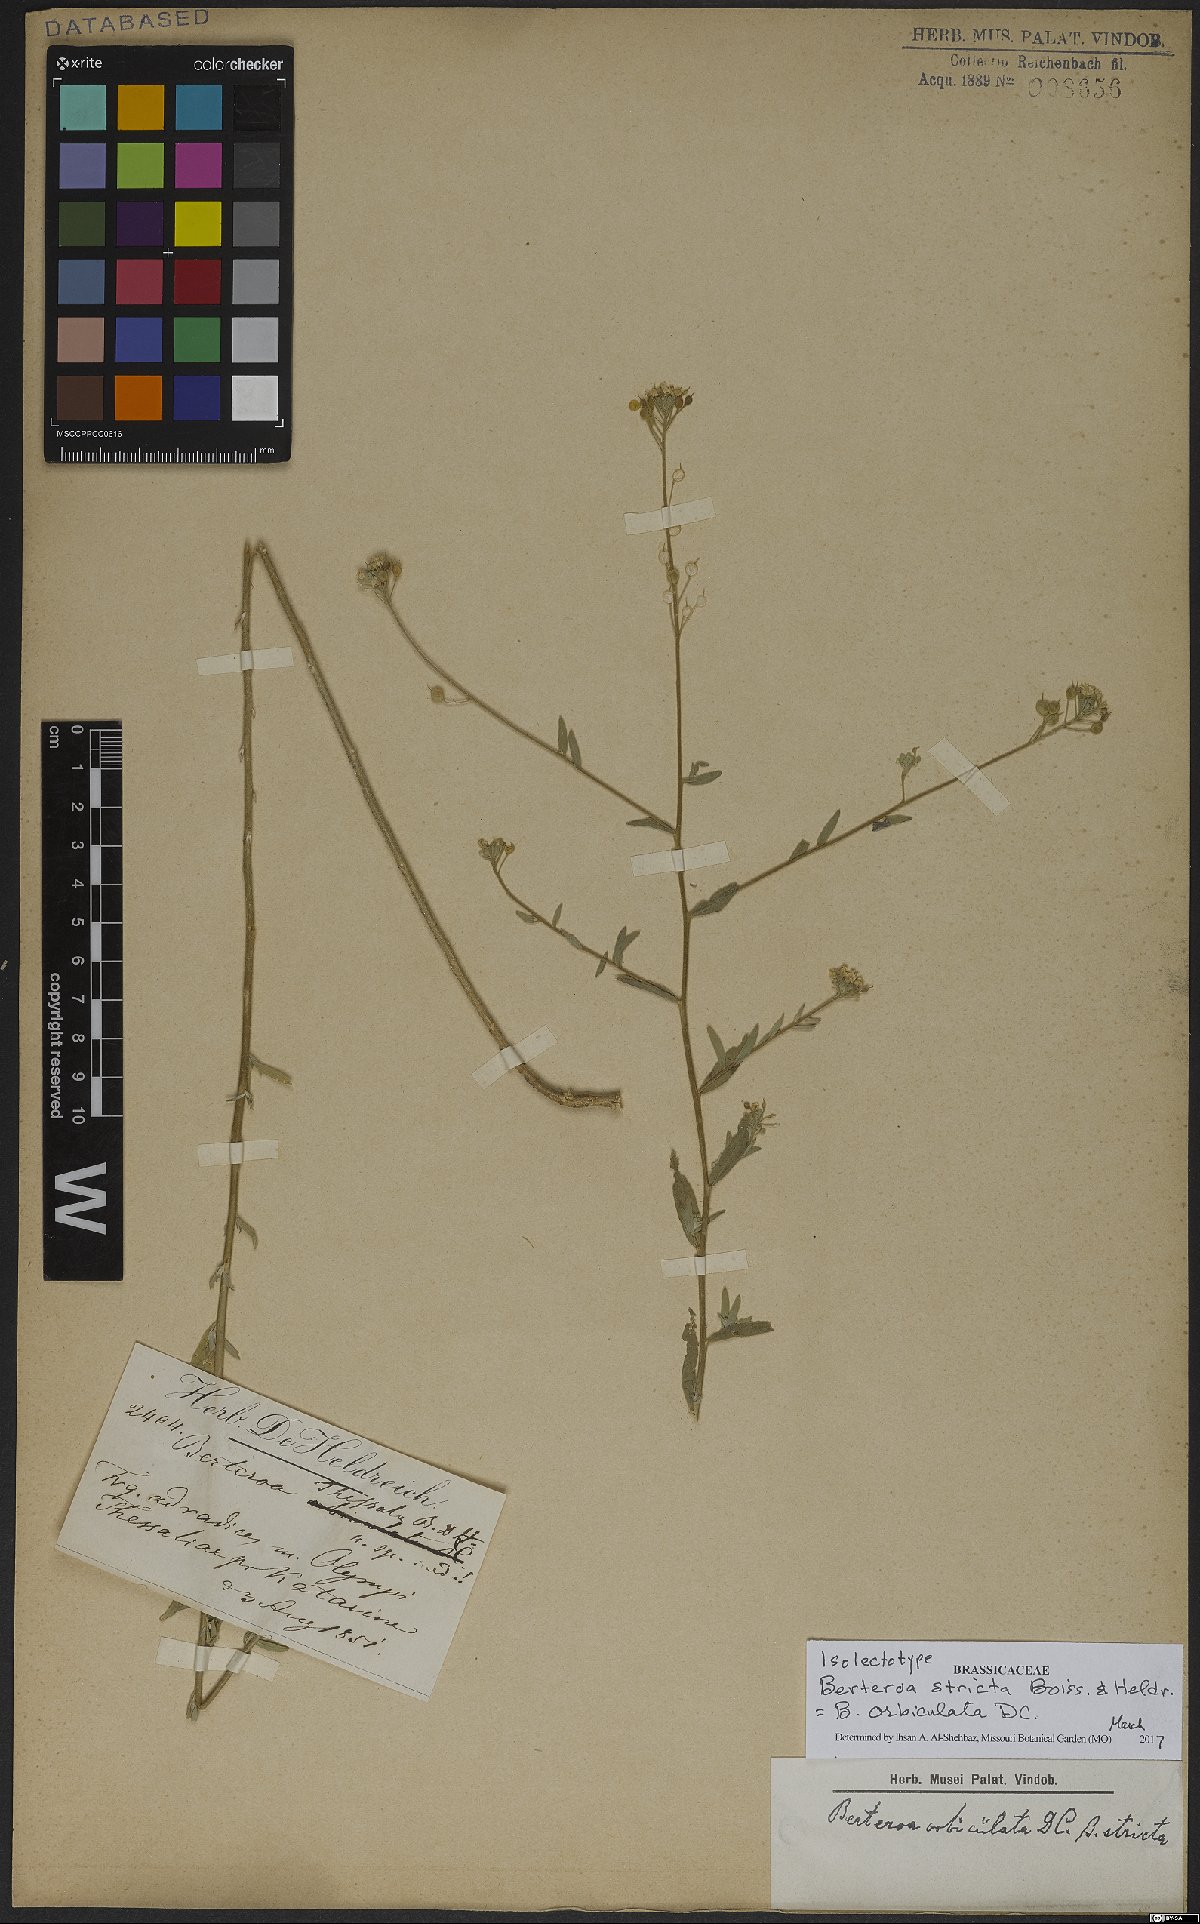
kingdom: Plantae
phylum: Tracheophyta
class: Magnoliopsida
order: Brassicales
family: Brassicaceae
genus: Berteroa
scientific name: Berteroa orbiculata
